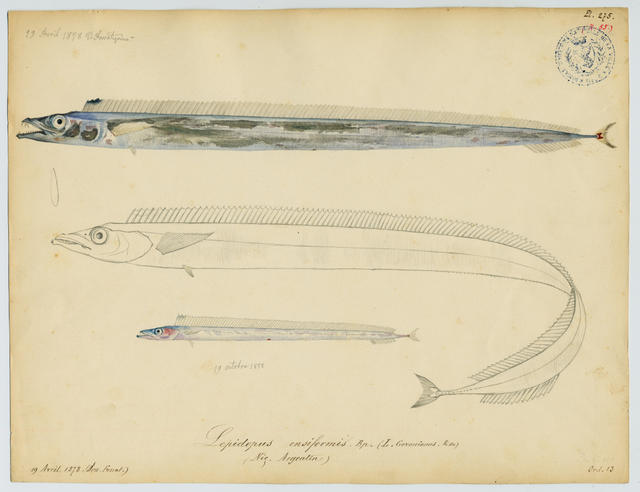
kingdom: Animalia
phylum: Chordata
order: Perciformes
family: Trichiuridae
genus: Lepidopus
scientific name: Lepidopus caudatus
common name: Silver scabbardfish
